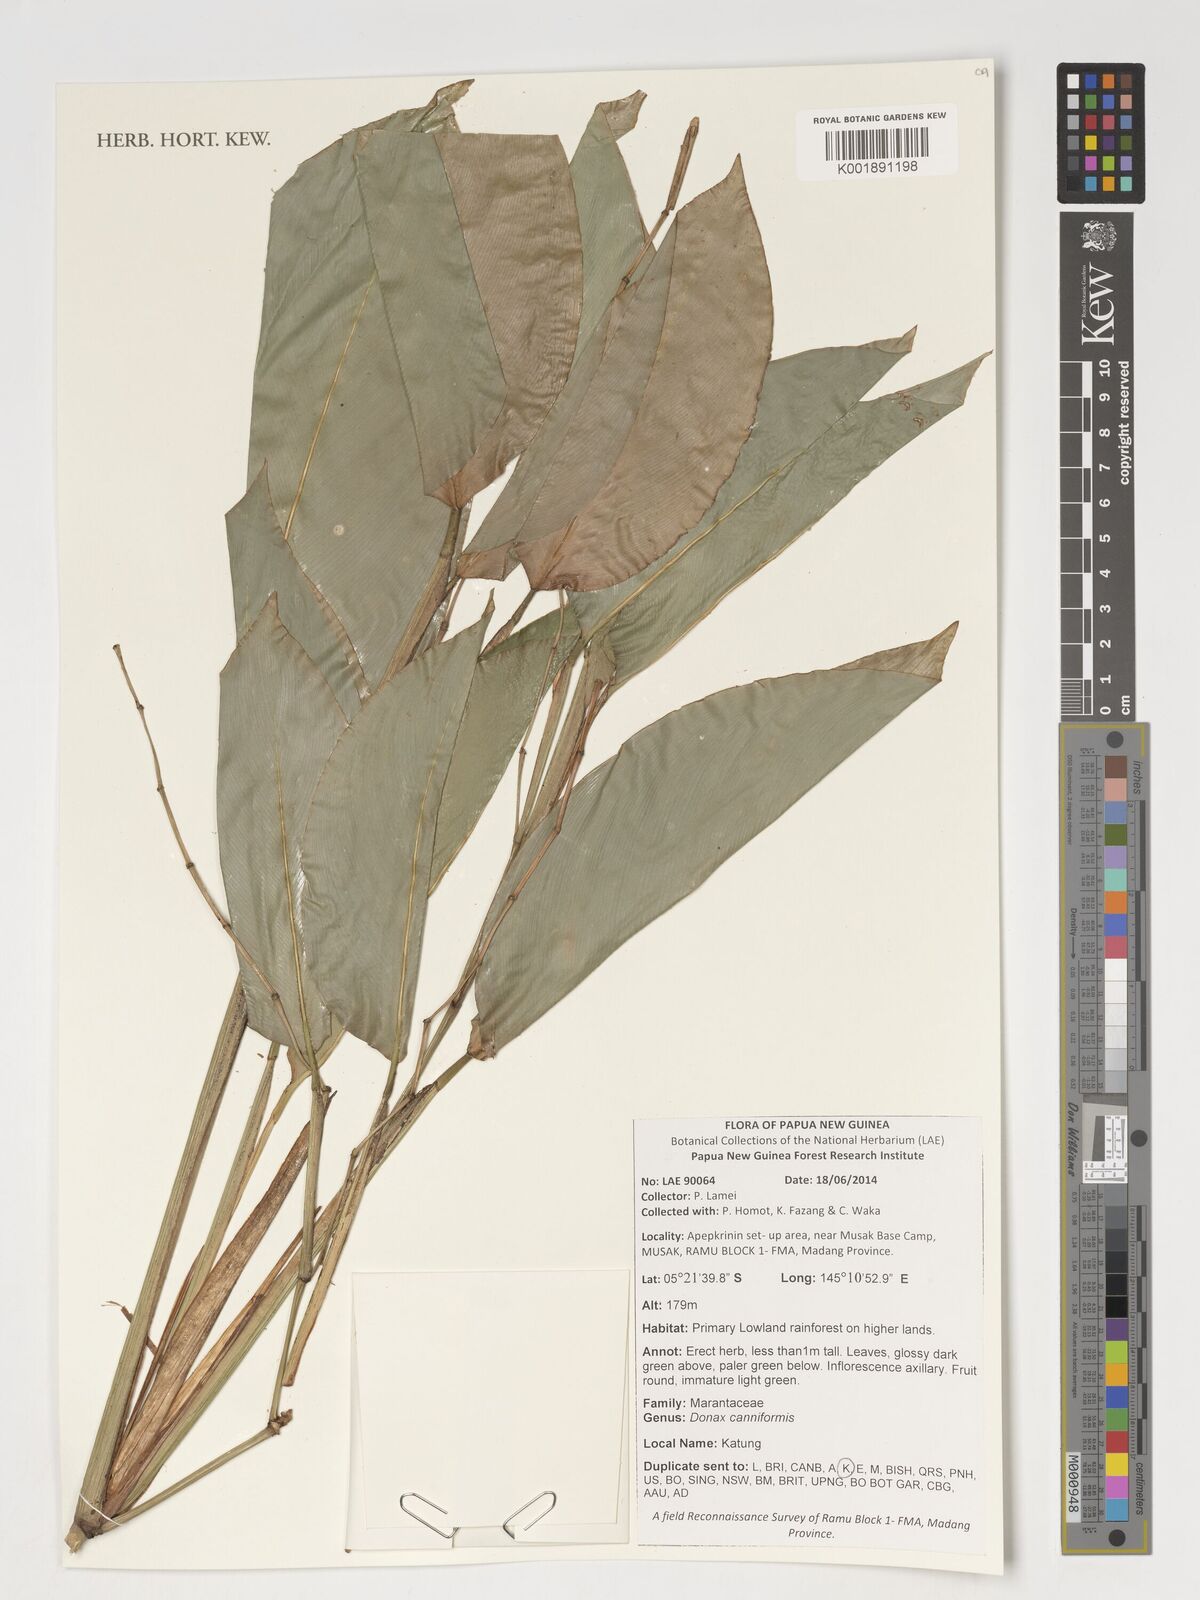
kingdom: Plantae
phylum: Tracheophyta
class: Liliopsida
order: Zingiberales
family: Marantaceae
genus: Donax
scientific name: Donax canniformis
